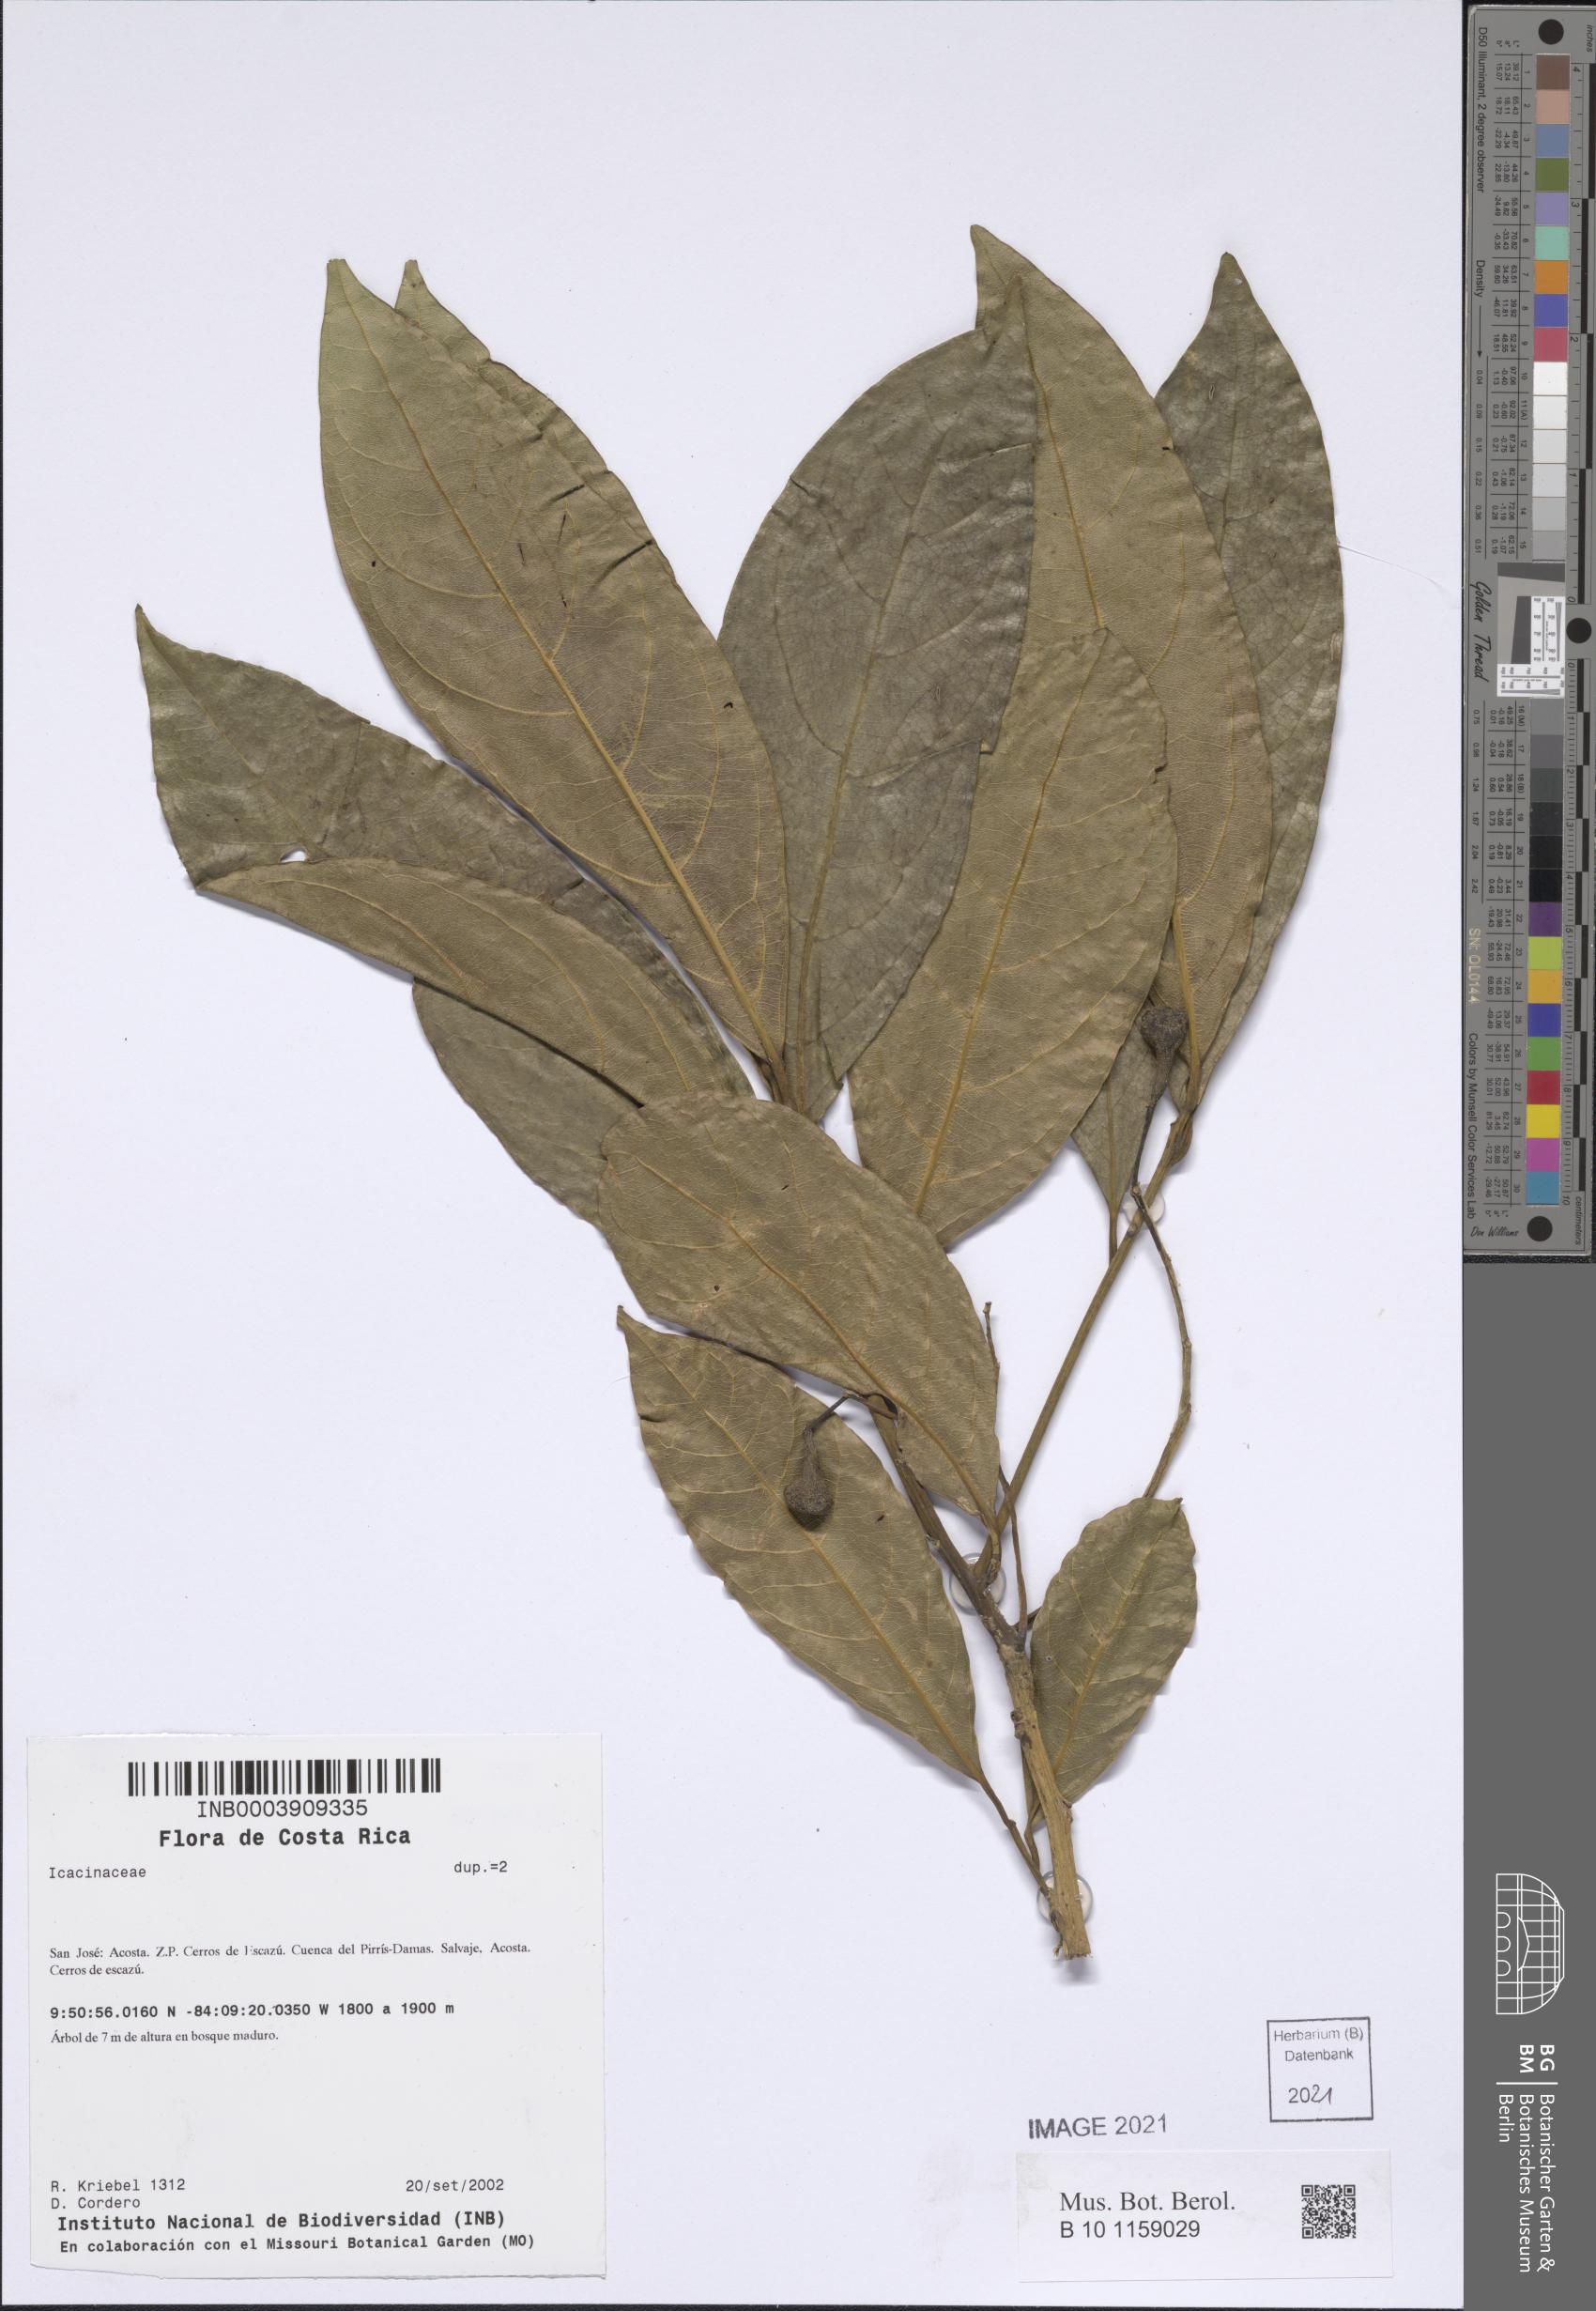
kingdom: Plantae
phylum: Tracheophyta
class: Magnoliopsida
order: Laurales
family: Lauraceae
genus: Beilschmiedia
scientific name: Beilschmiedia
